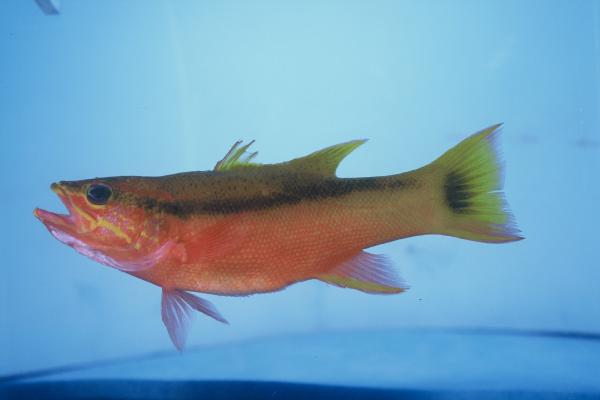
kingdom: Animalia
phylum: Chordata
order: Perciformes
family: Serranidae
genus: Liopropoma
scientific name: Liopropoma latifasciatum
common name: Blackstripe basslet
